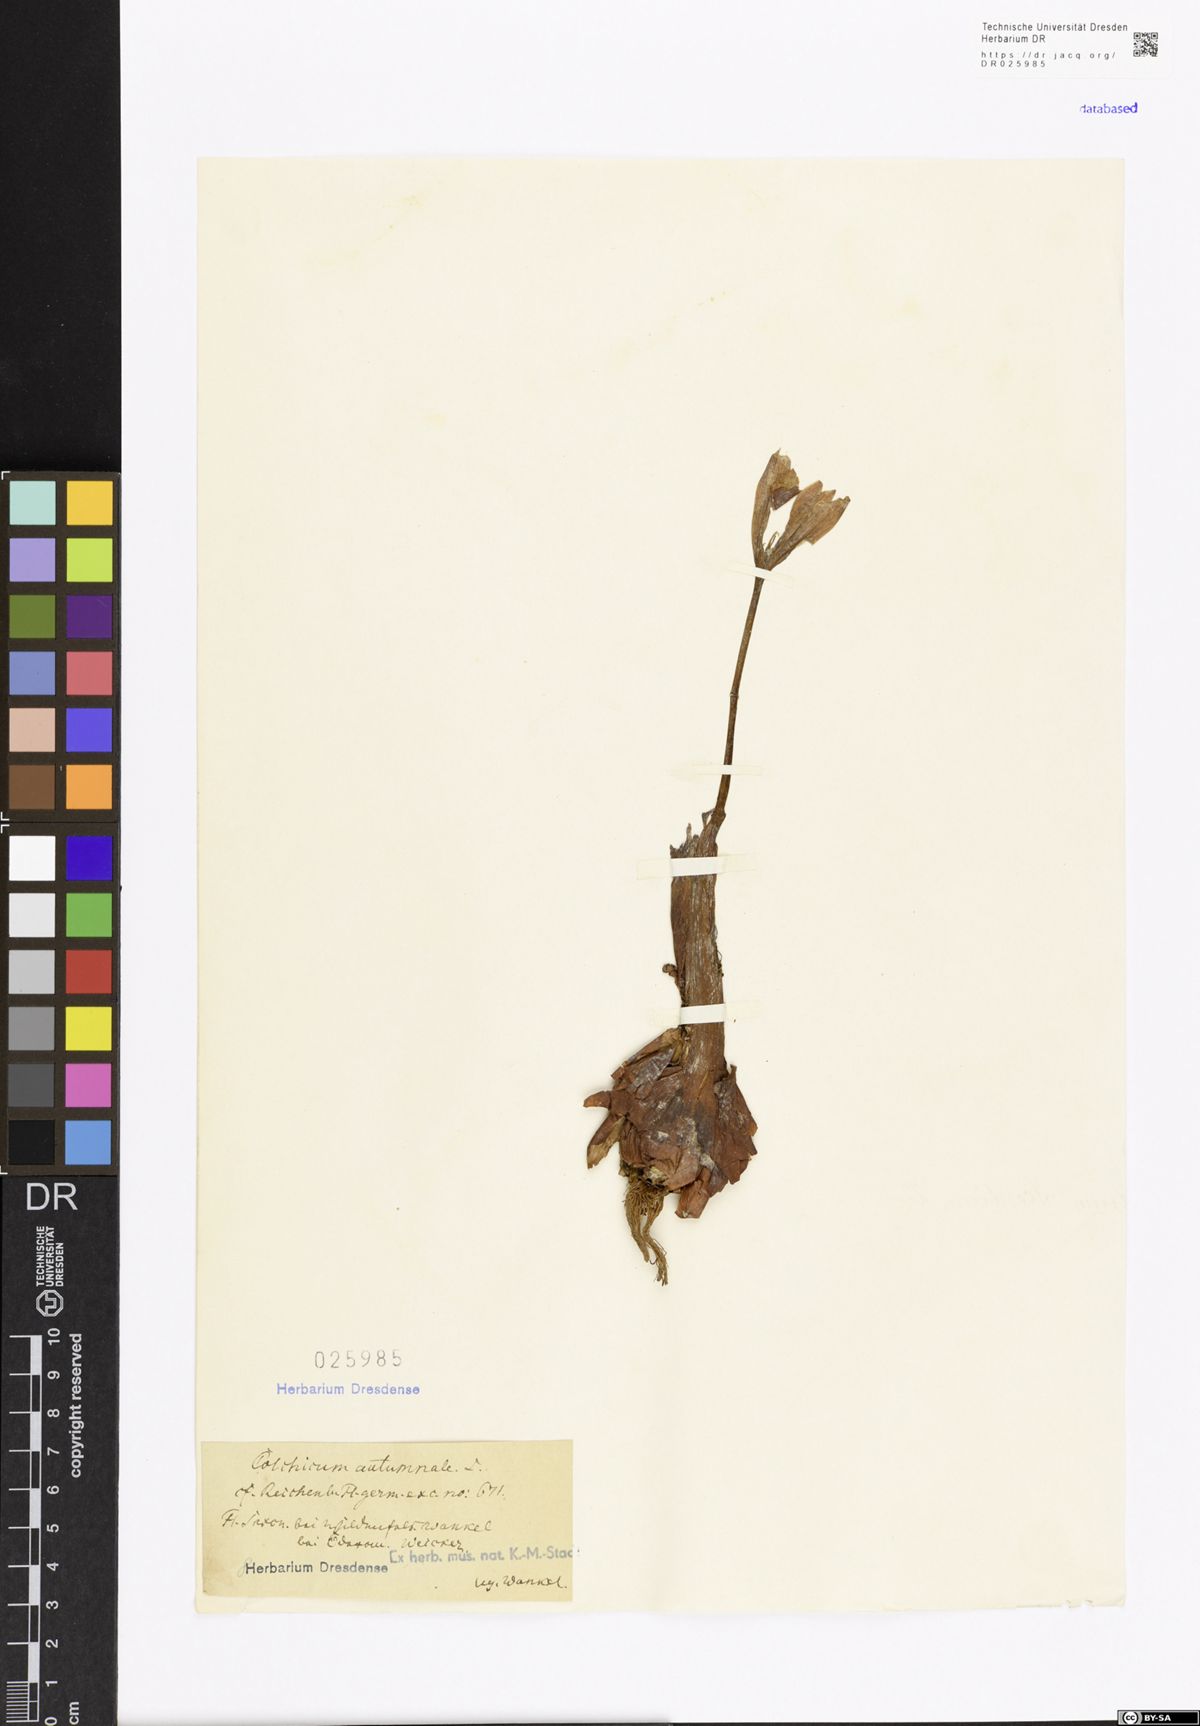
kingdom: Plantae
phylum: Tracheophyta
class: Liliopsida
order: Liliales
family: Colchicaceae
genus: Colchicum
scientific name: Colchicum autumnale
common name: Autumn crocus
